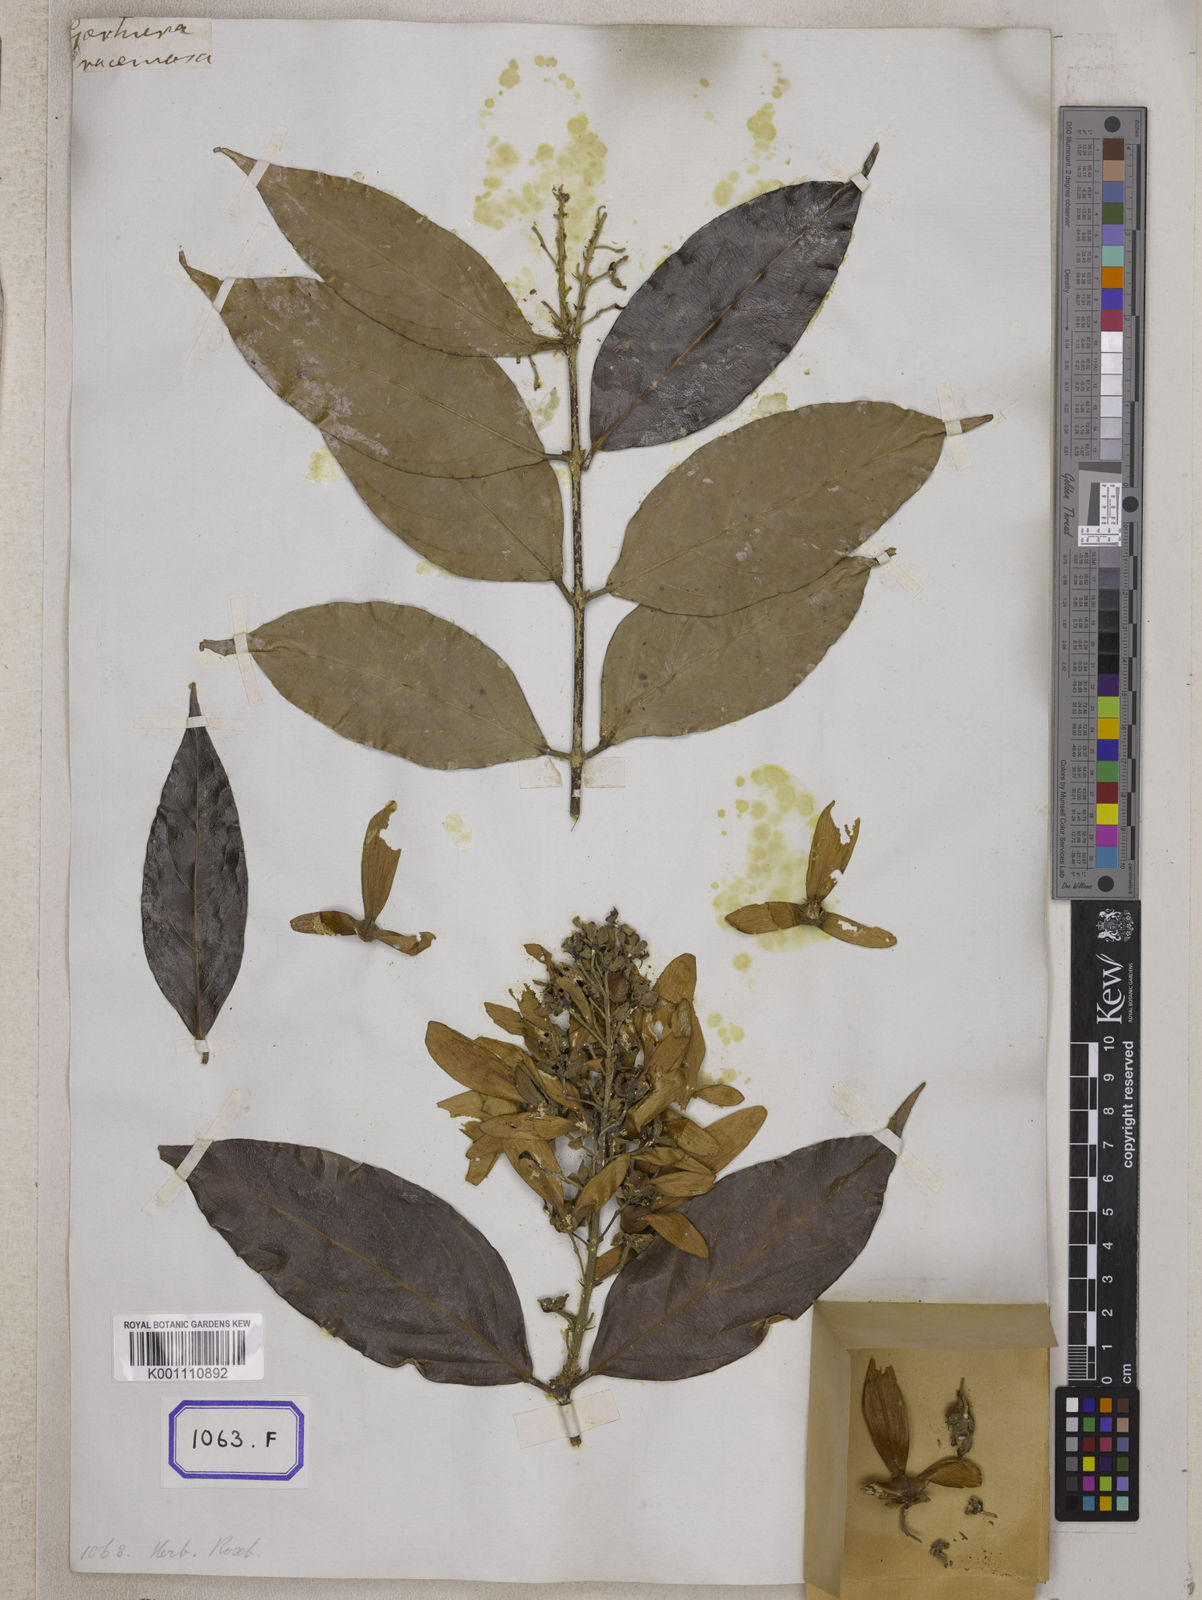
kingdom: Plantae
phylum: Tracheophyta
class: Magnoliopsida
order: Malpighiales
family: Malpighiaceae
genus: Hiptage
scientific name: Hiptage benghalensis
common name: Hiptage
